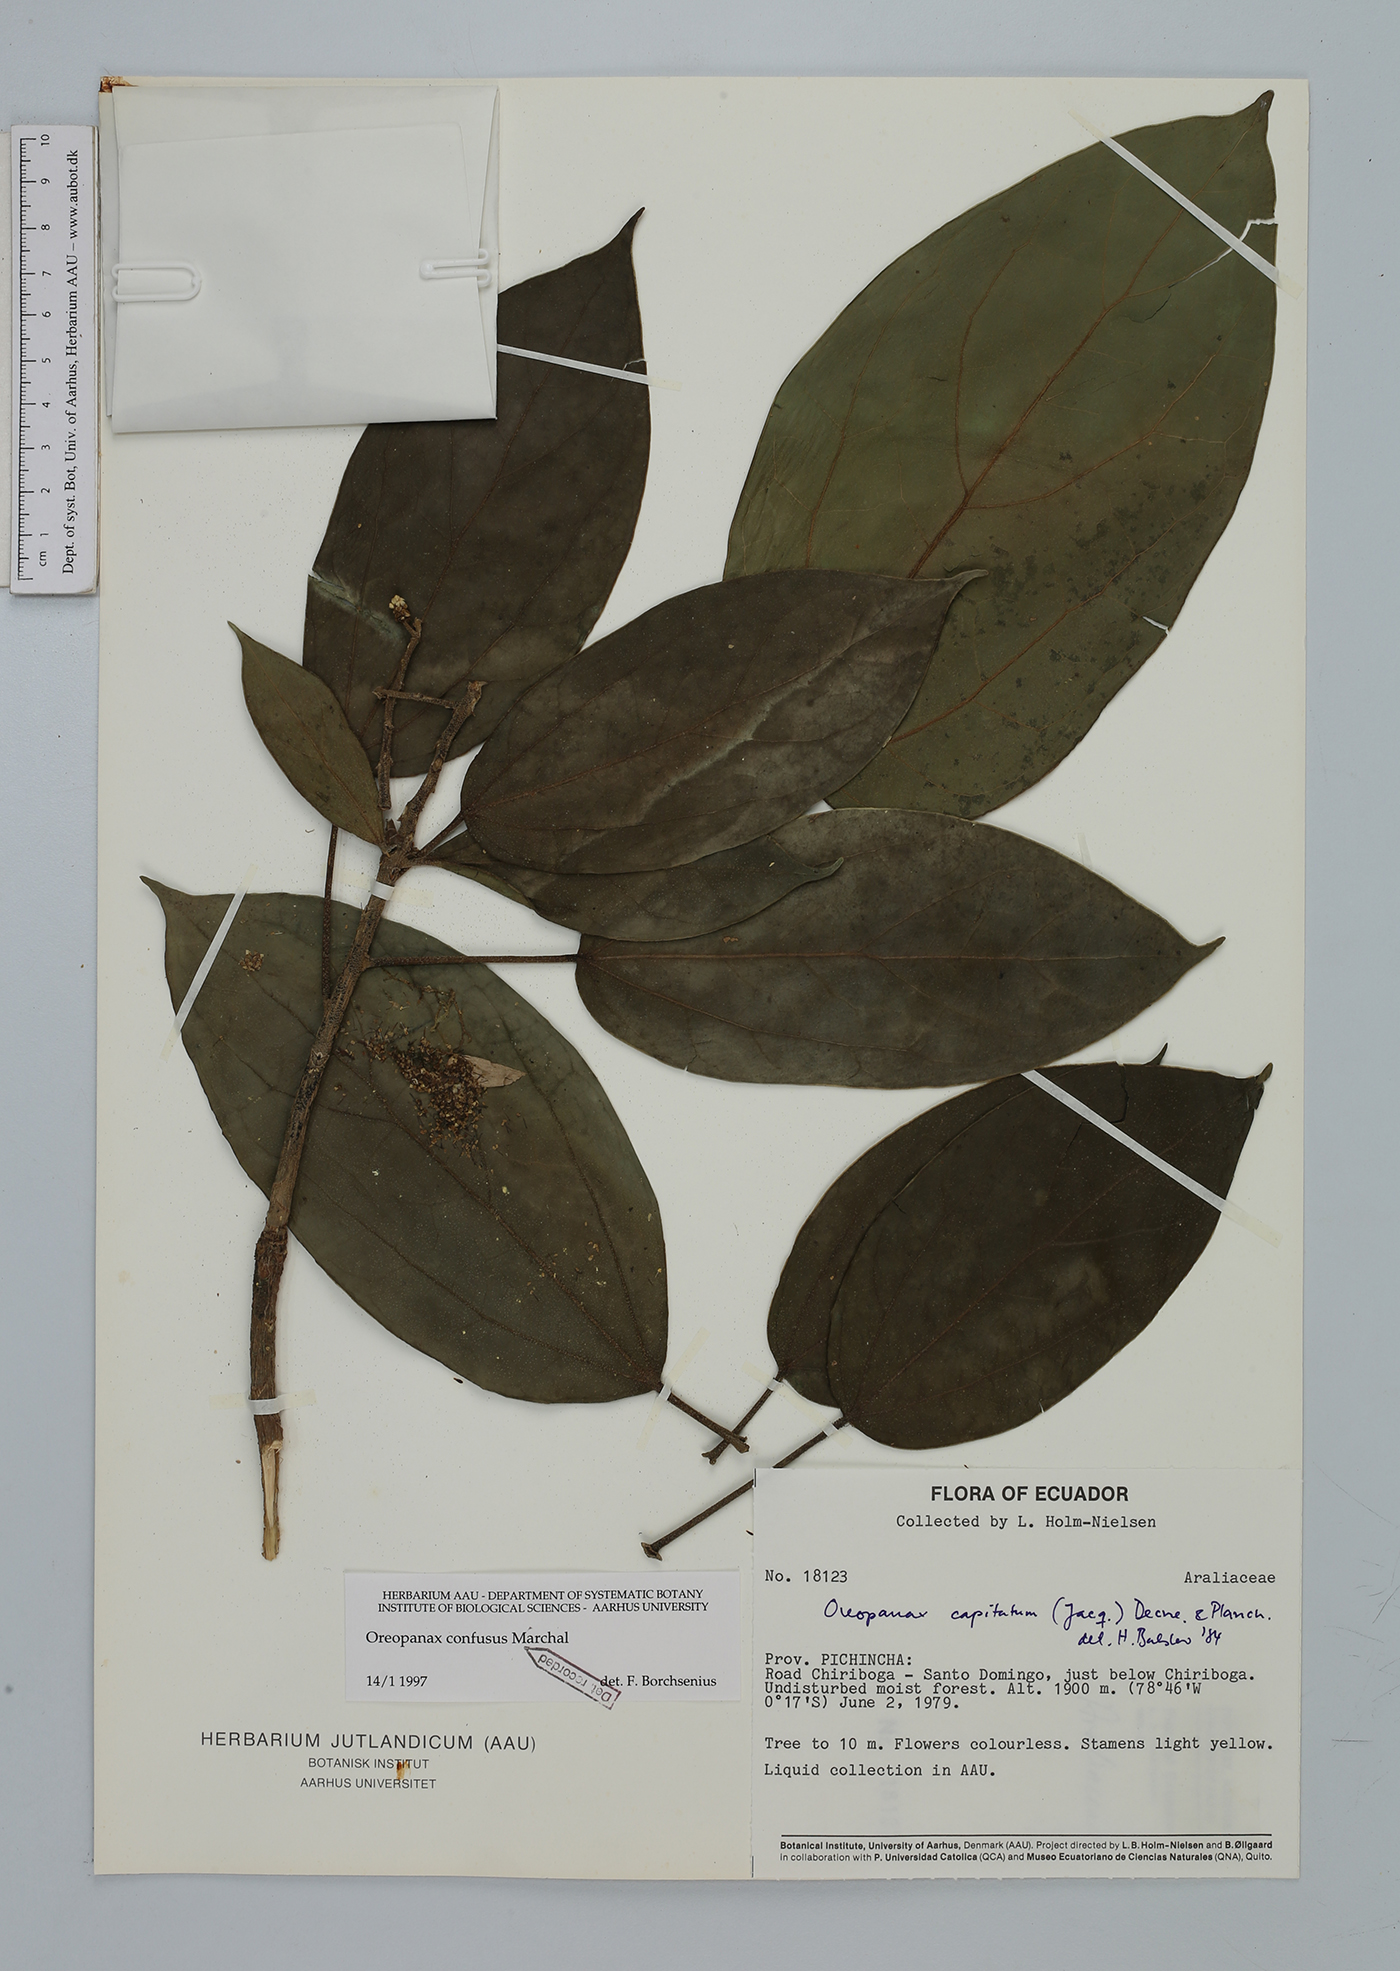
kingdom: Plantae
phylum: Tracheophyta
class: Magnoliopsida
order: Apiales
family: Araliaceae
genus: Oreopanax
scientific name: Oreopanax confusus
